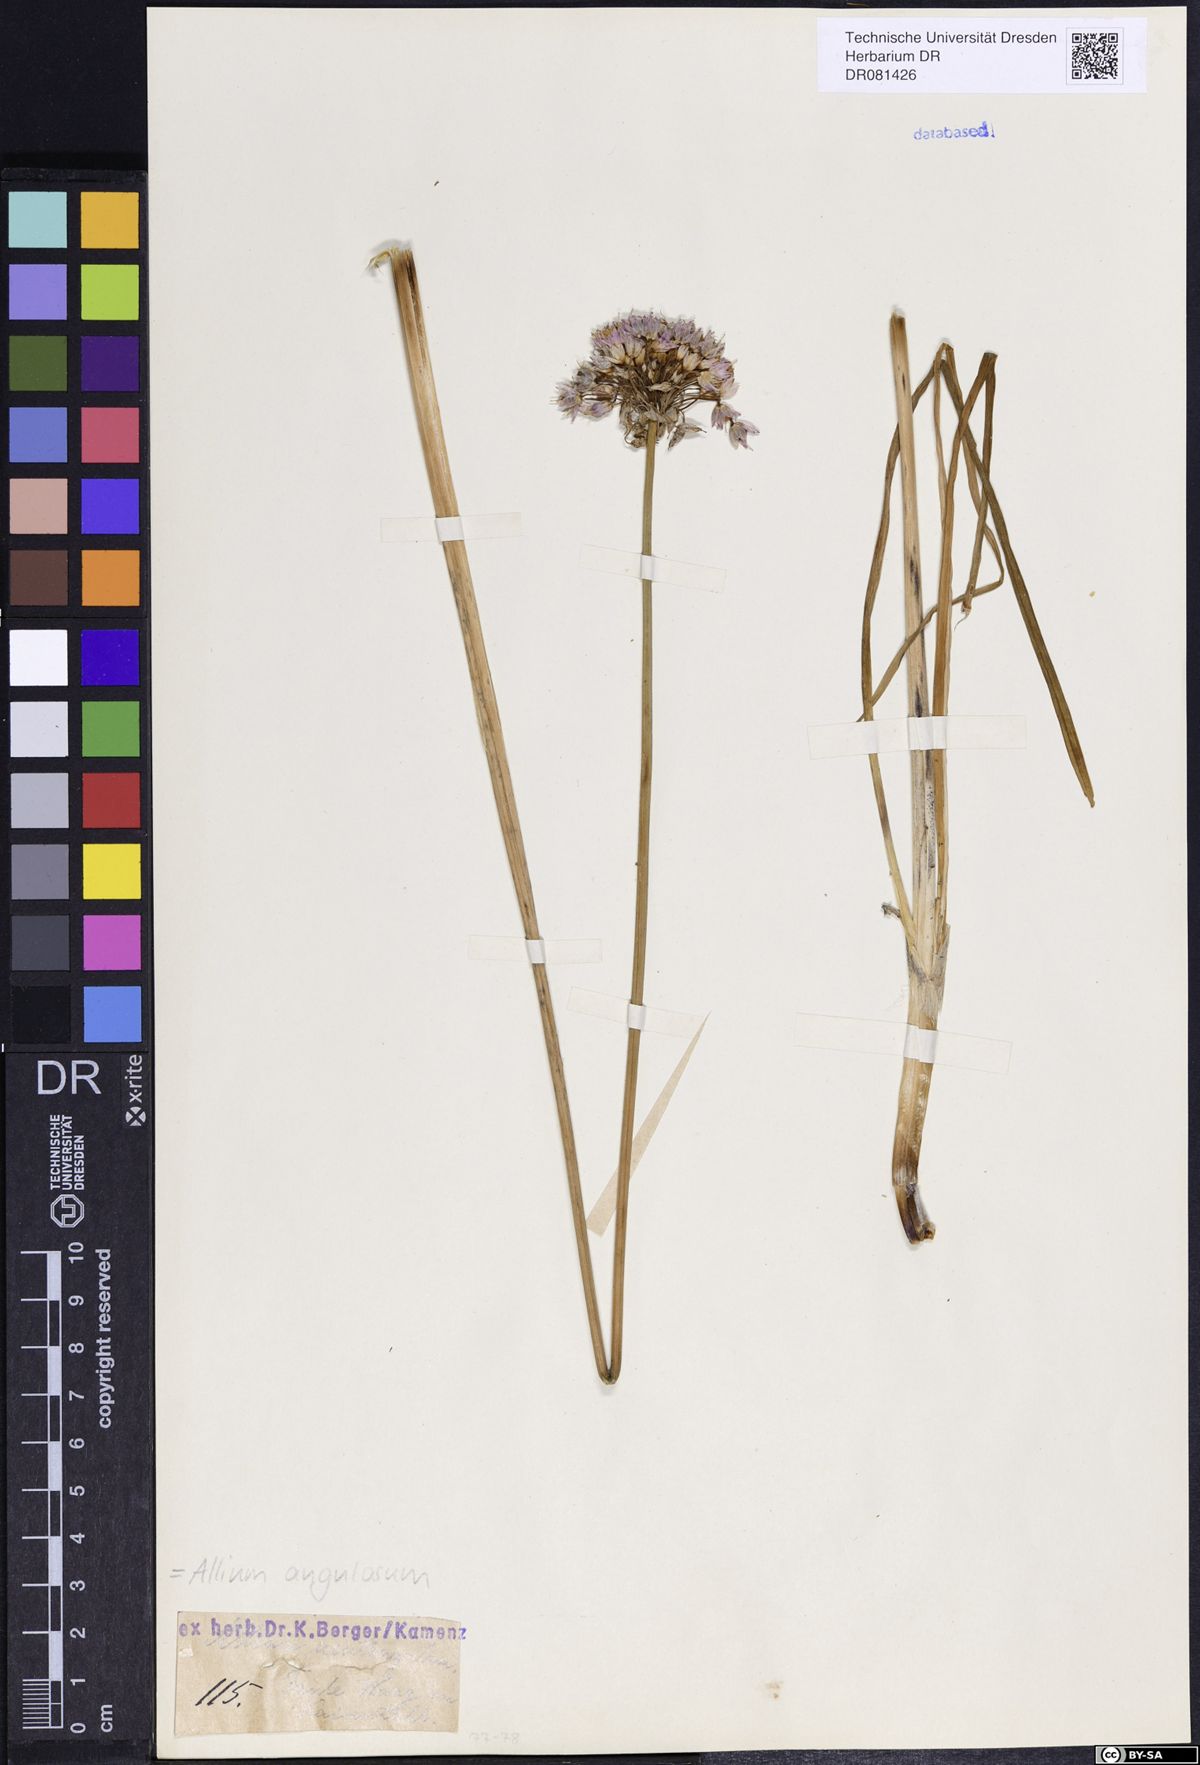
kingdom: Plantae
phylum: Tracheophyta
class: Liliopsida
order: Asparagales
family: Amaryllidaceae
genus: Allium
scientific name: Allium angulosum
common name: Mouse garlic
